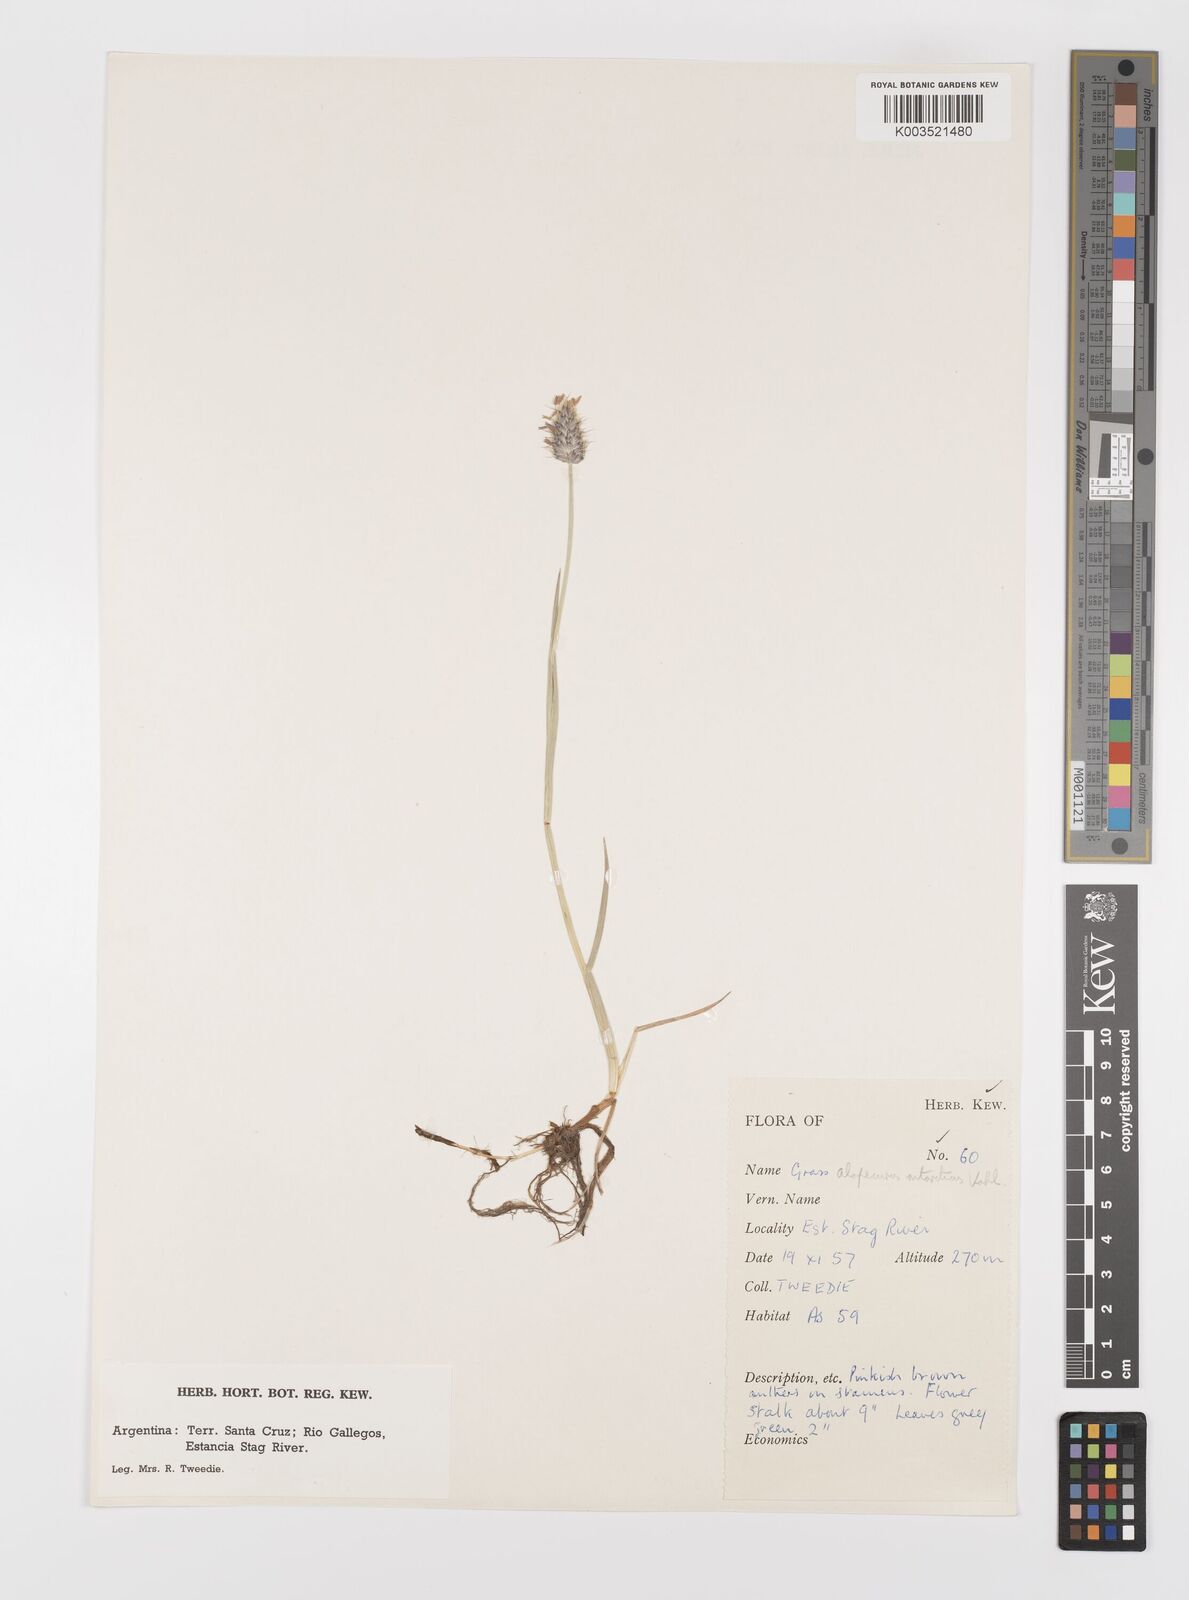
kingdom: Plantae
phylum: Tracheophyta
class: Liliopsida
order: Poales
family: Poaceae
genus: Alopecurus
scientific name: Alopecurus magellanicus
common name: Alpine foxtail
